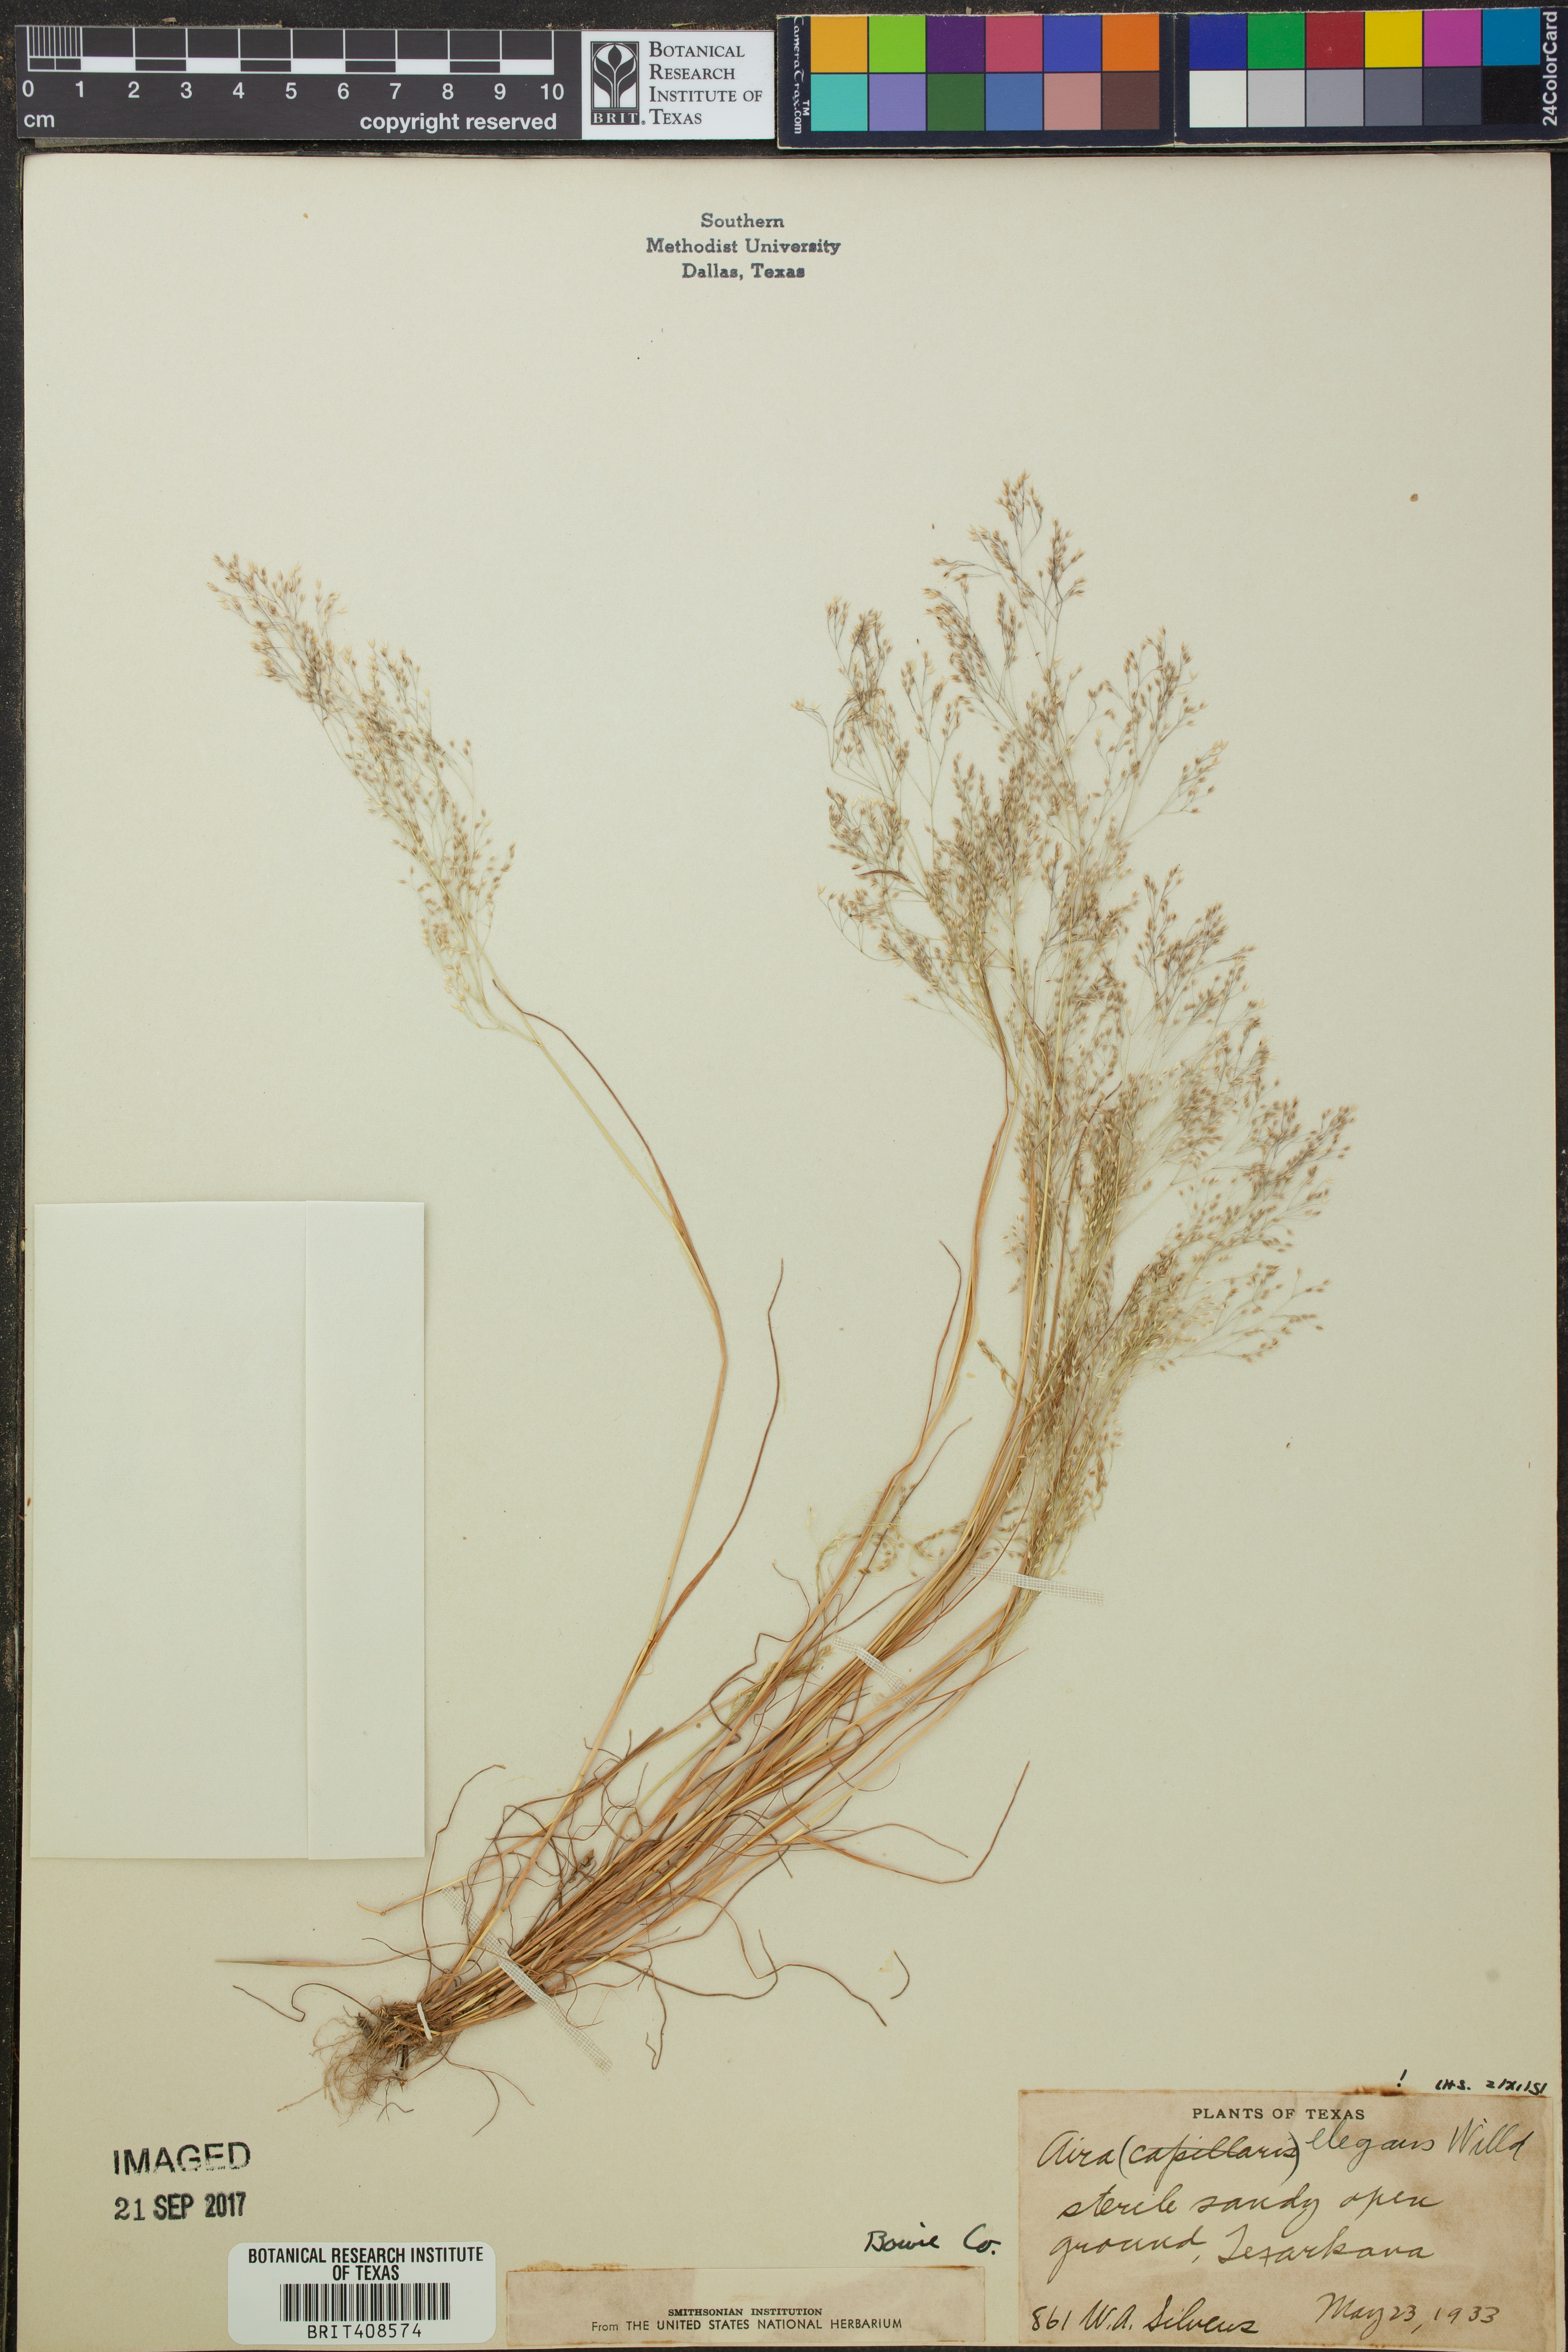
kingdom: Plantae
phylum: Tracheophyta
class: Liliopsida
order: Poales
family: Poaceae
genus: Aira
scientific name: Aira elegans
